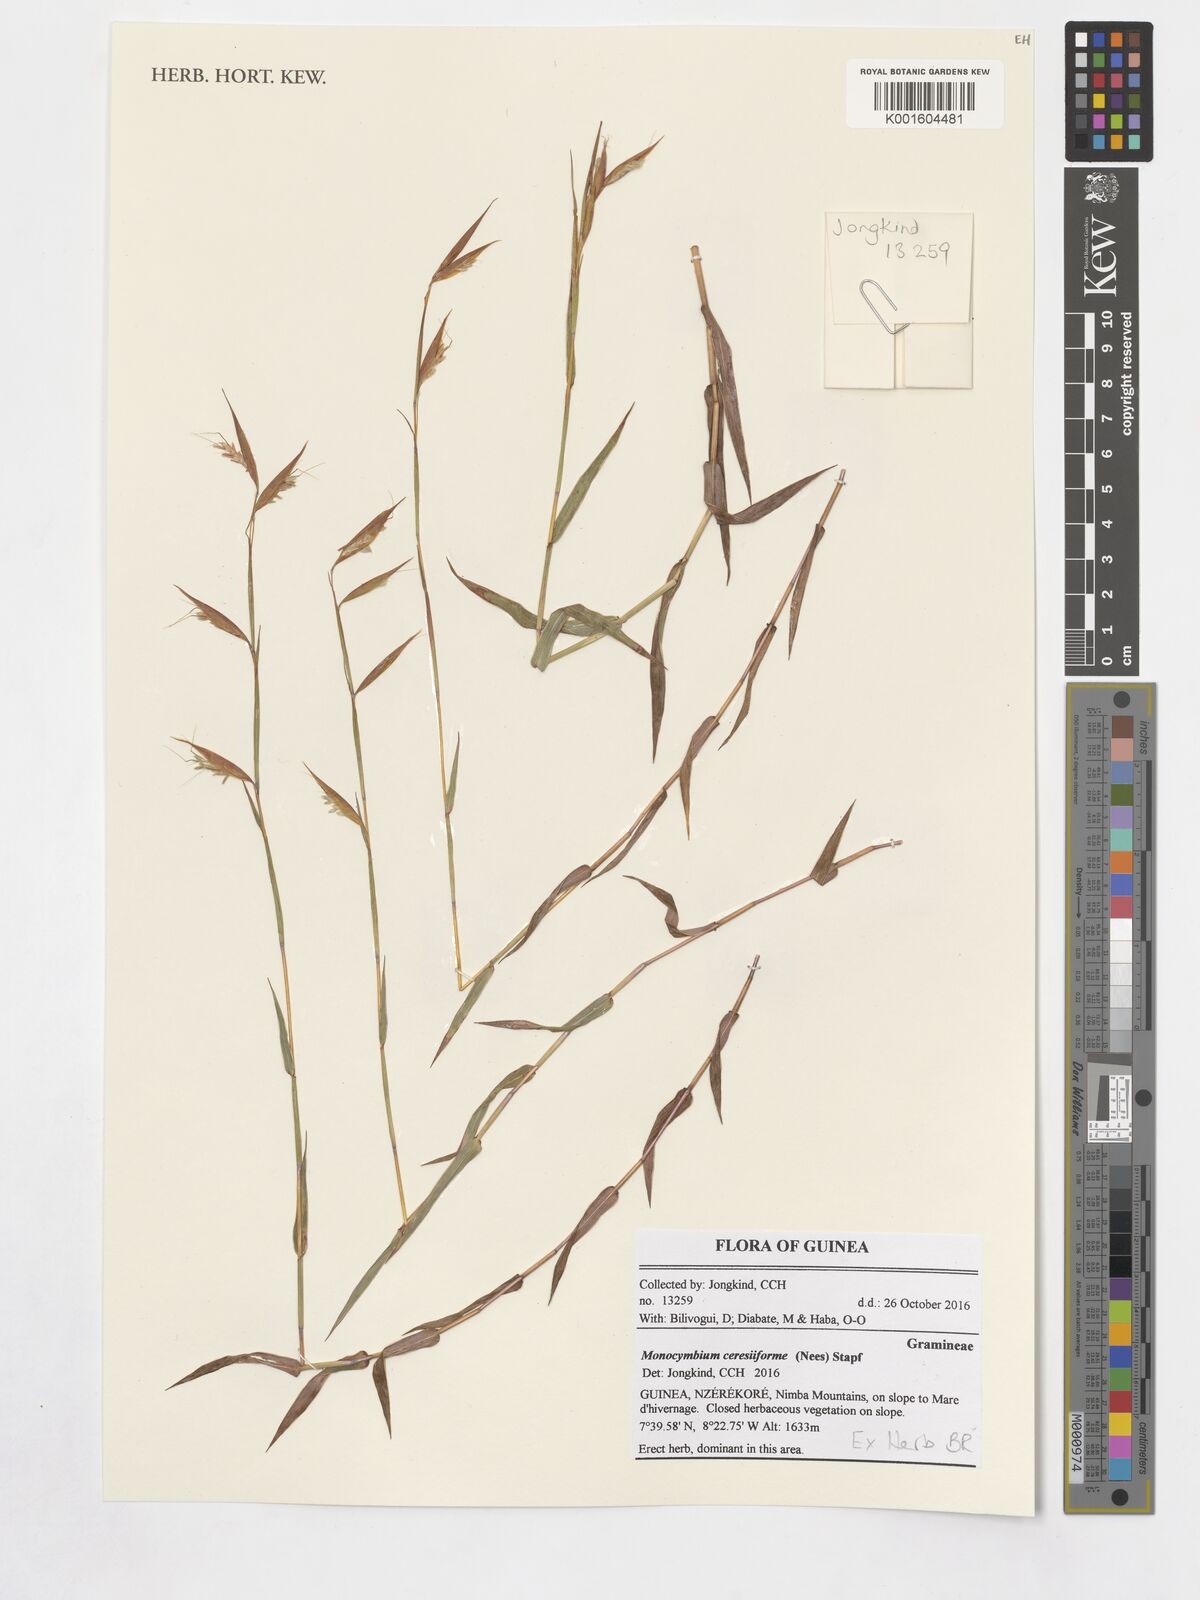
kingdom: Plantae
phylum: Tracheophyta
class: Liliopsida
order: Poales
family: Poaceae
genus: Monocymbium
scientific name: Monocymbium ceresiiforme
